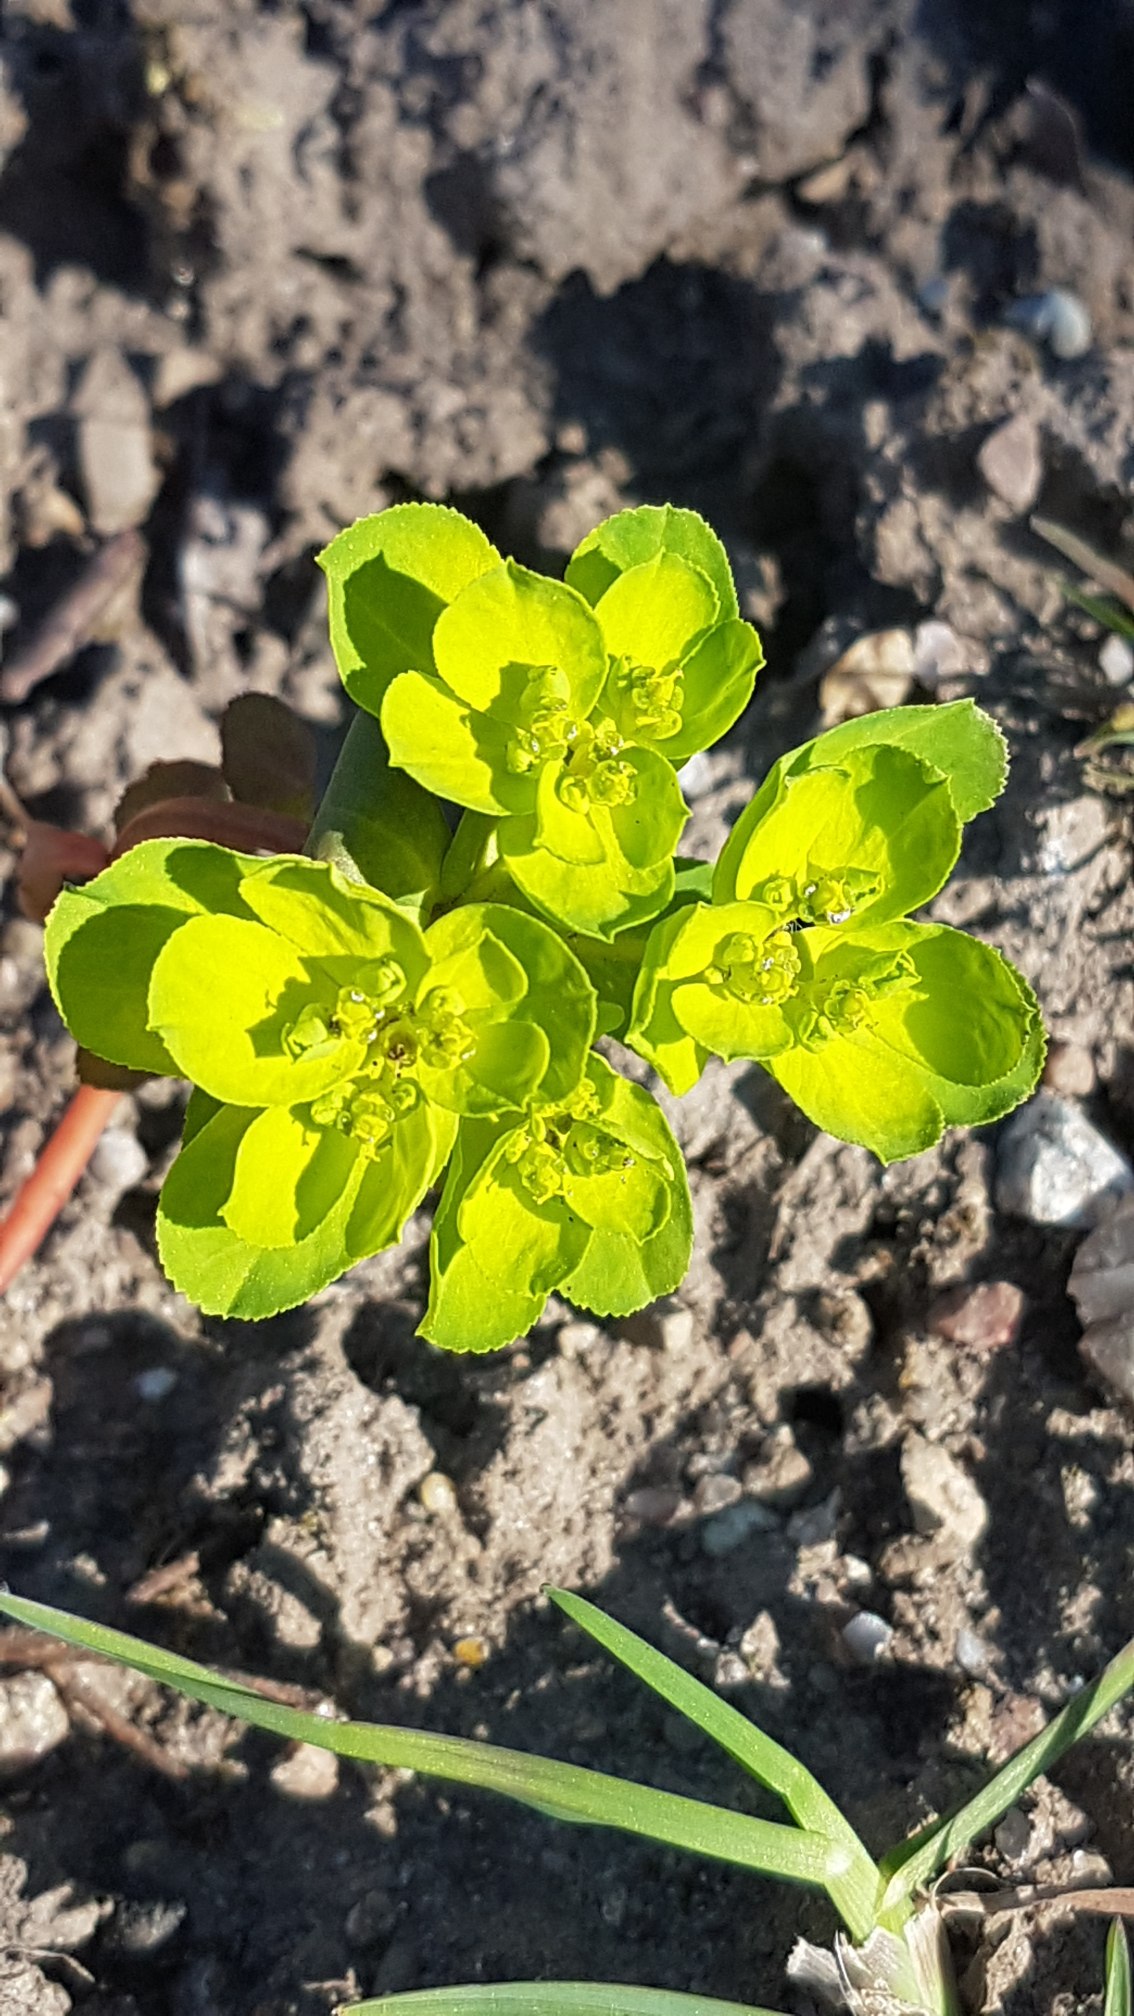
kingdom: Plantae
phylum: Tracheophyta
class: Magnoliopsida
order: Malpighiales
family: Euphorbiaceae
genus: Euphorbia
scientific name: Euphorbia helioscopia
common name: Skærm-vortemælk
